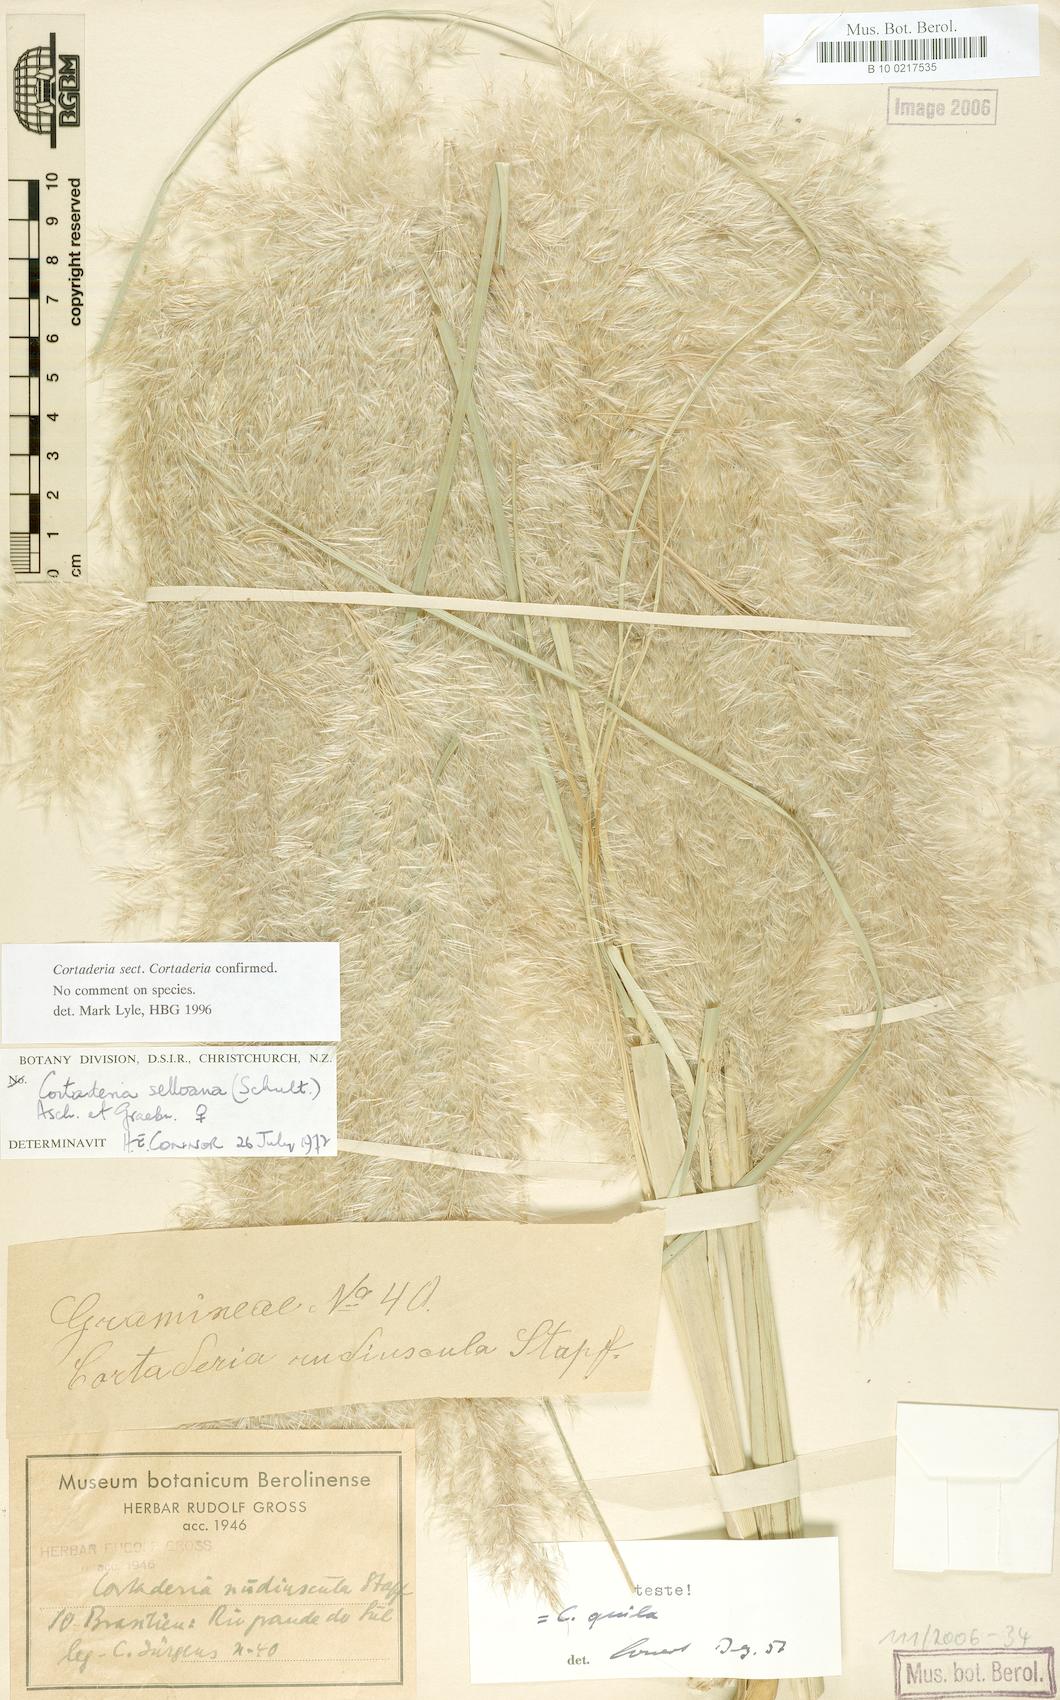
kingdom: Plantae
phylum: Tracheophyta
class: Liliopsida
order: Poales
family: Poaceae
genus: Cortaderia
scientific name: Cortaderia selloana
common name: Uruguayan pampas grass
